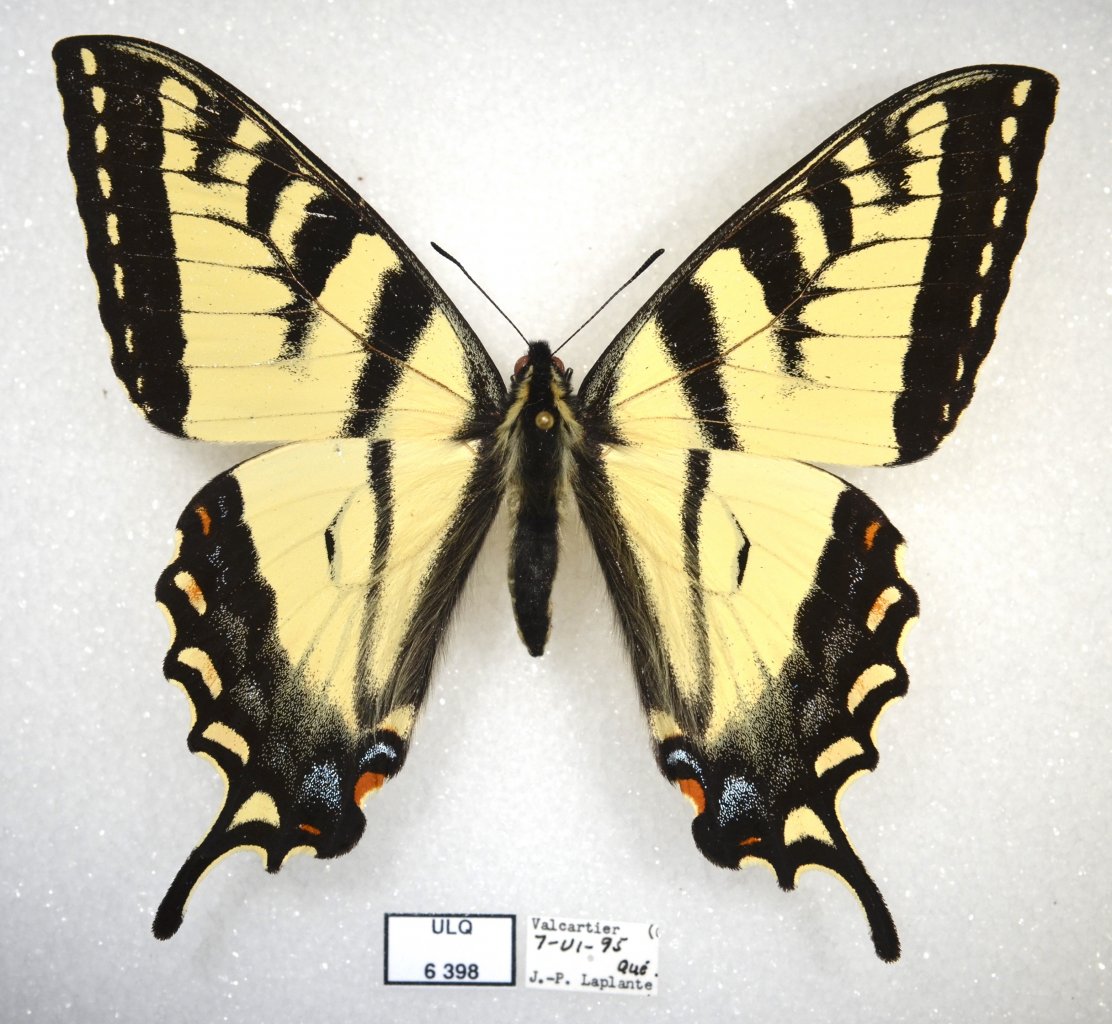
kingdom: Animalia
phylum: Arthropoda
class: Insecta
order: Lepidoptera
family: Papilionidae
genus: Pterourus
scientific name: Pterourus canadensis
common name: Canadian Tiger Swallowtail
